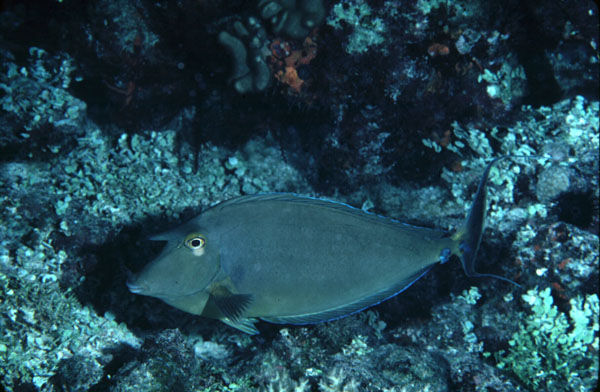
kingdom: Animalia
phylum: Chordata
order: Perciformes
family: Acanthuridae
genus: Naso
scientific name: Naso unicornis
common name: Bluespine unicornfish
